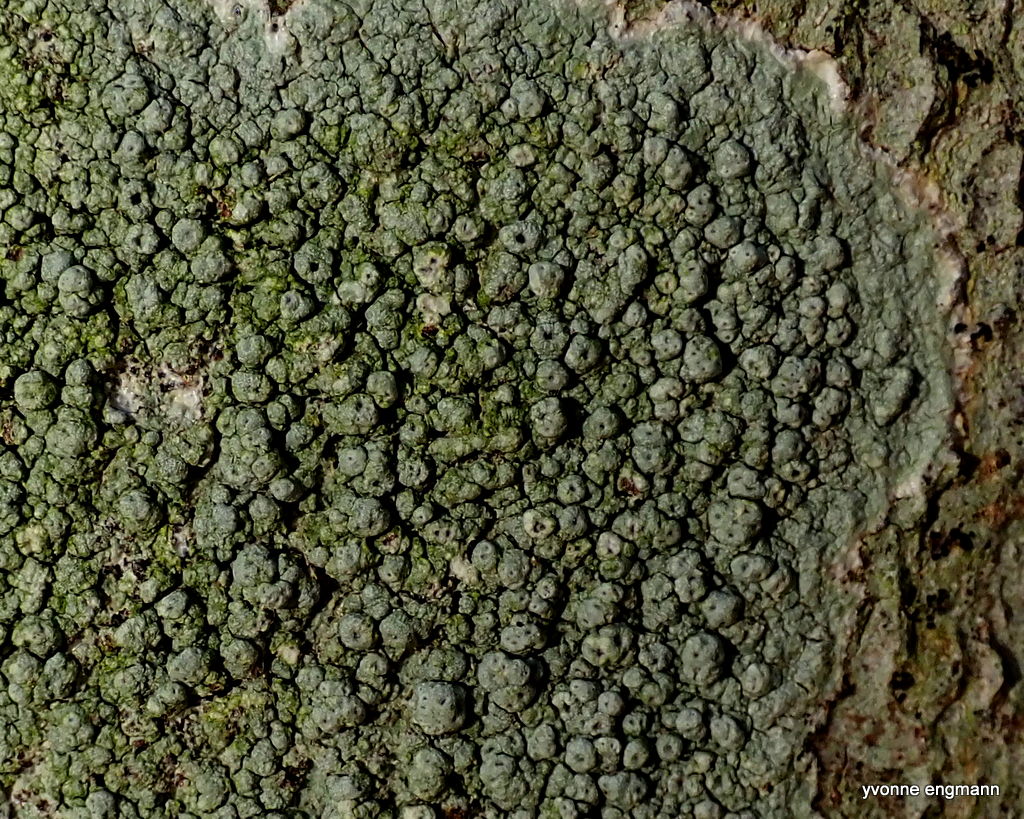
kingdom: Fungi
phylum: Ascomycota
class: Lecanoromycetes
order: Pertusariales
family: Pertusariaceae
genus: Pertusaria
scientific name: Pertusaria pertusa
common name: almindelig prikvortelav
